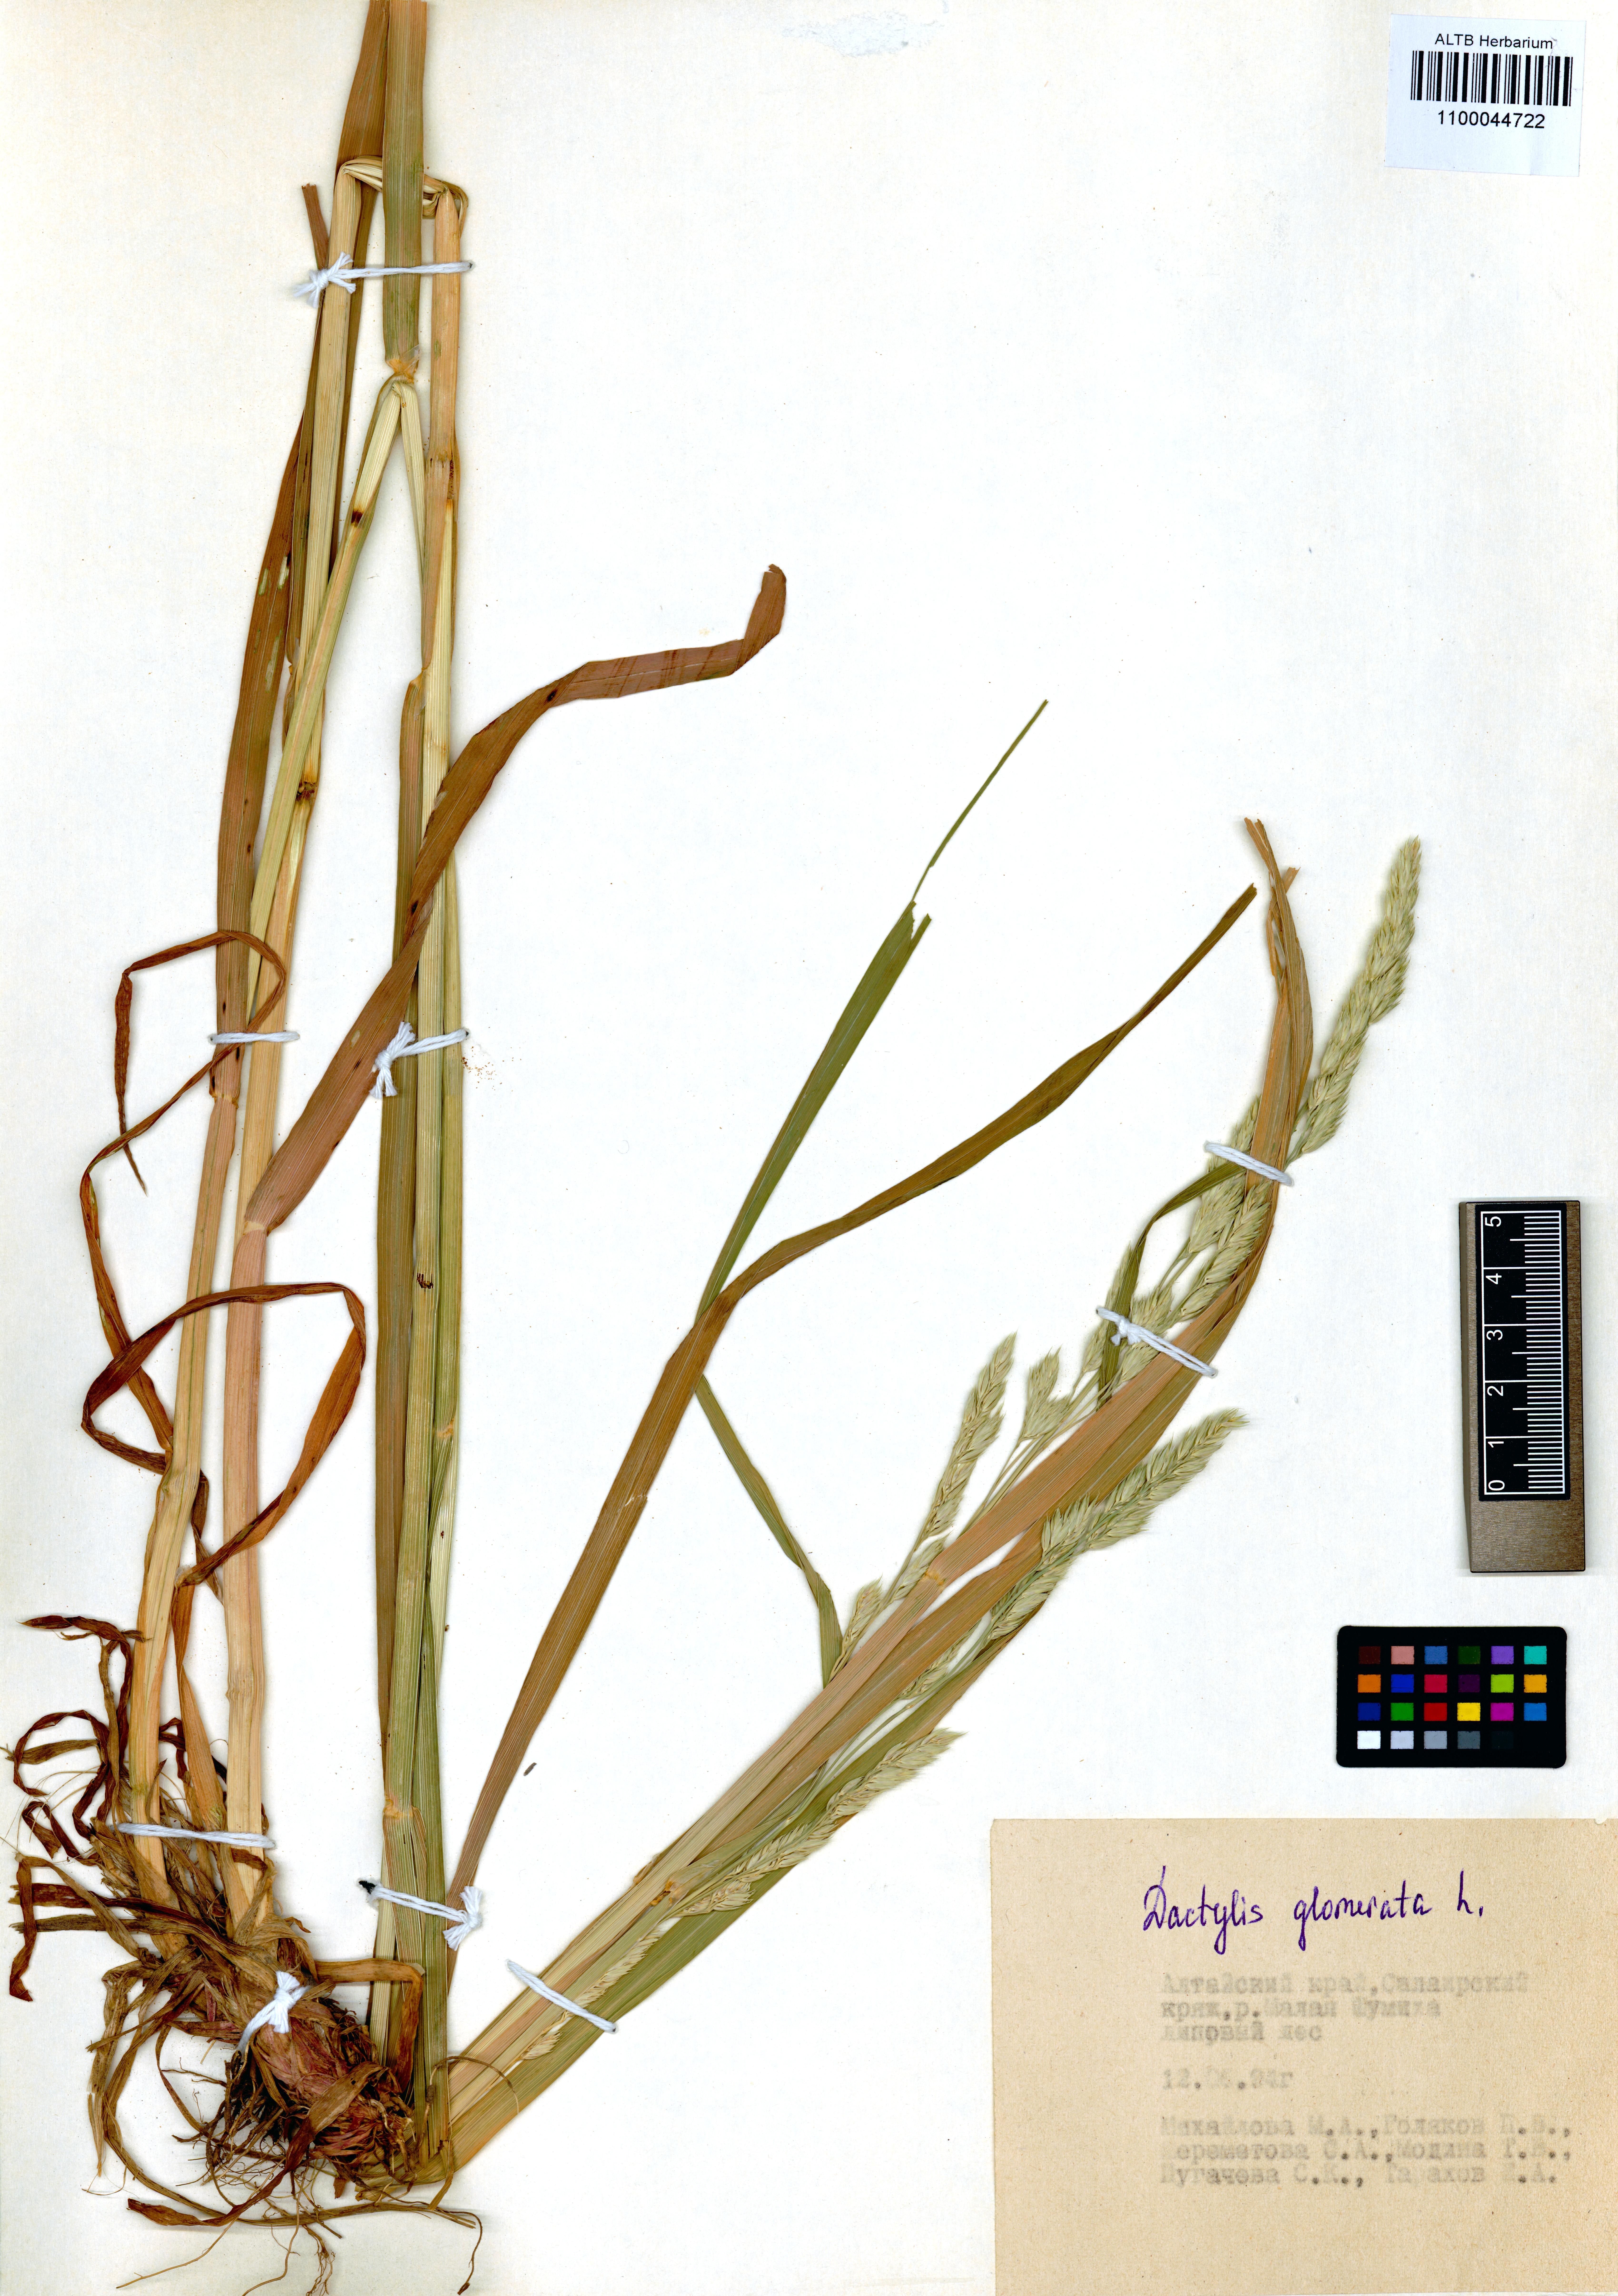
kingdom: Plantae
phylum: Tracheophyta
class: Liliopsida
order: Poales
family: Poaceae
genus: Dactylis
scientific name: Dactylis glomerata
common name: Orchardgrass
